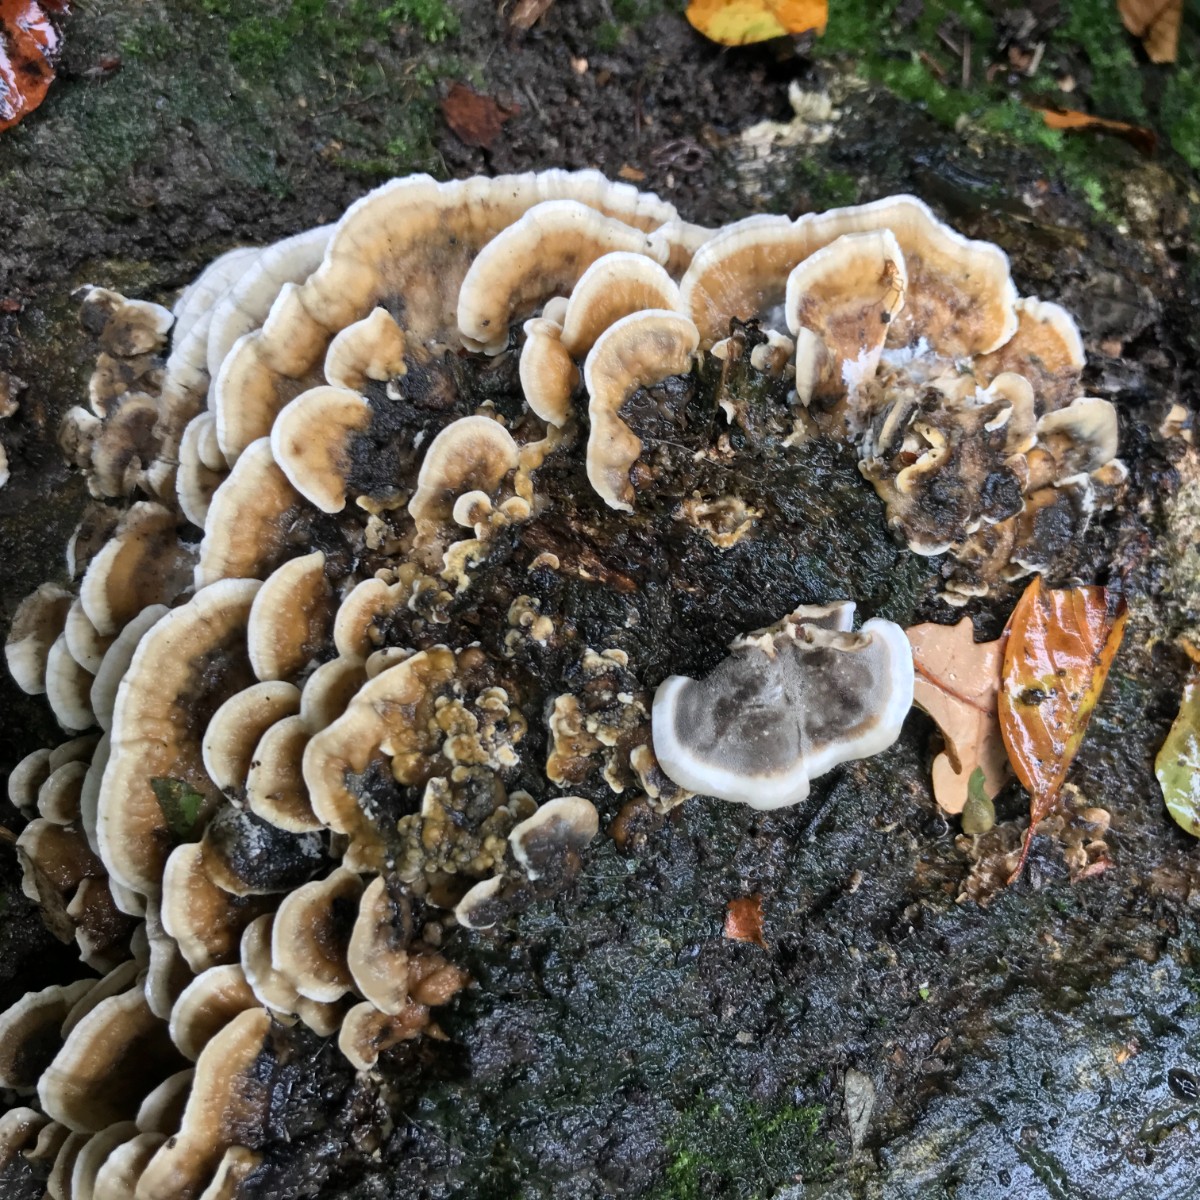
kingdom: Fungi
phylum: Basidiomycota
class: Agaricomycetes
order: Polyporales
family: Phanerochaetaceae
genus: Bjerkandera
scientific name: Bjerkandera adusta
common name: sveden sodporesvamp
